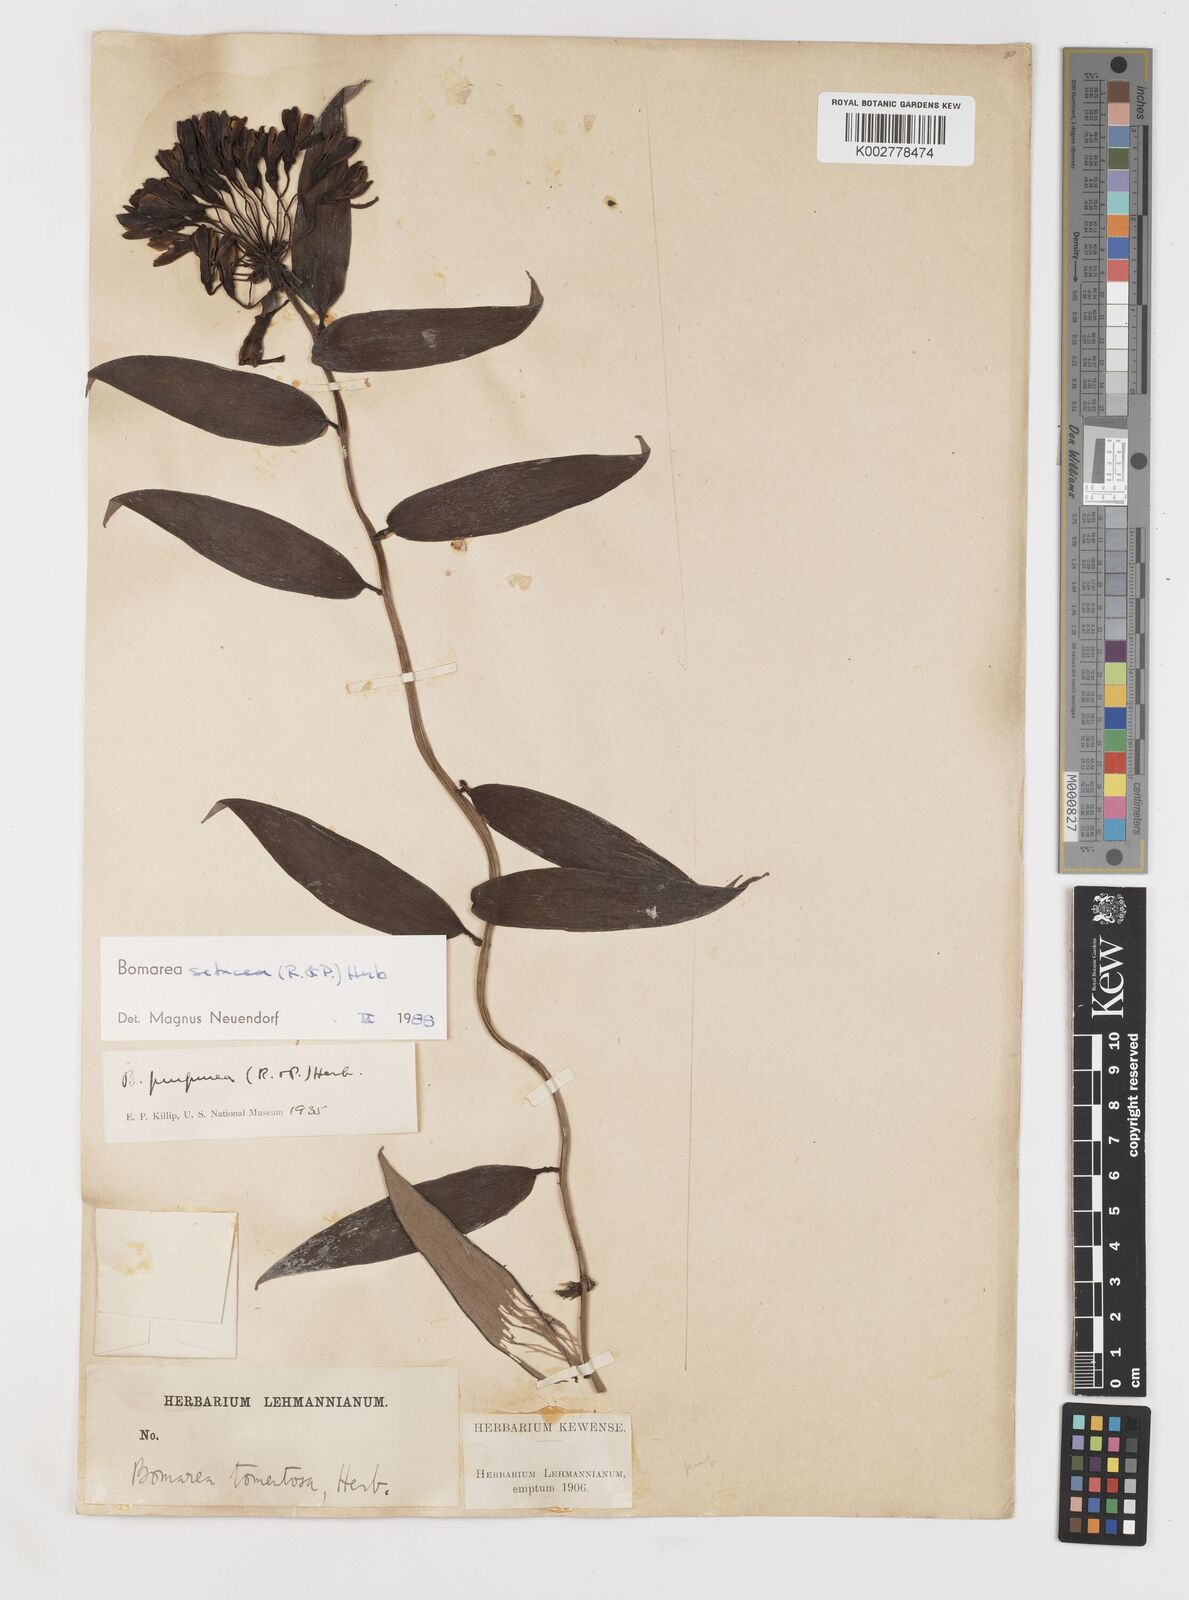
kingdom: Plantae
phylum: Tracheophyta
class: Liliopsida
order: Liliales
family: Alstroemeriaceae
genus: Bomarea
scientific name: Bomarea setacea
